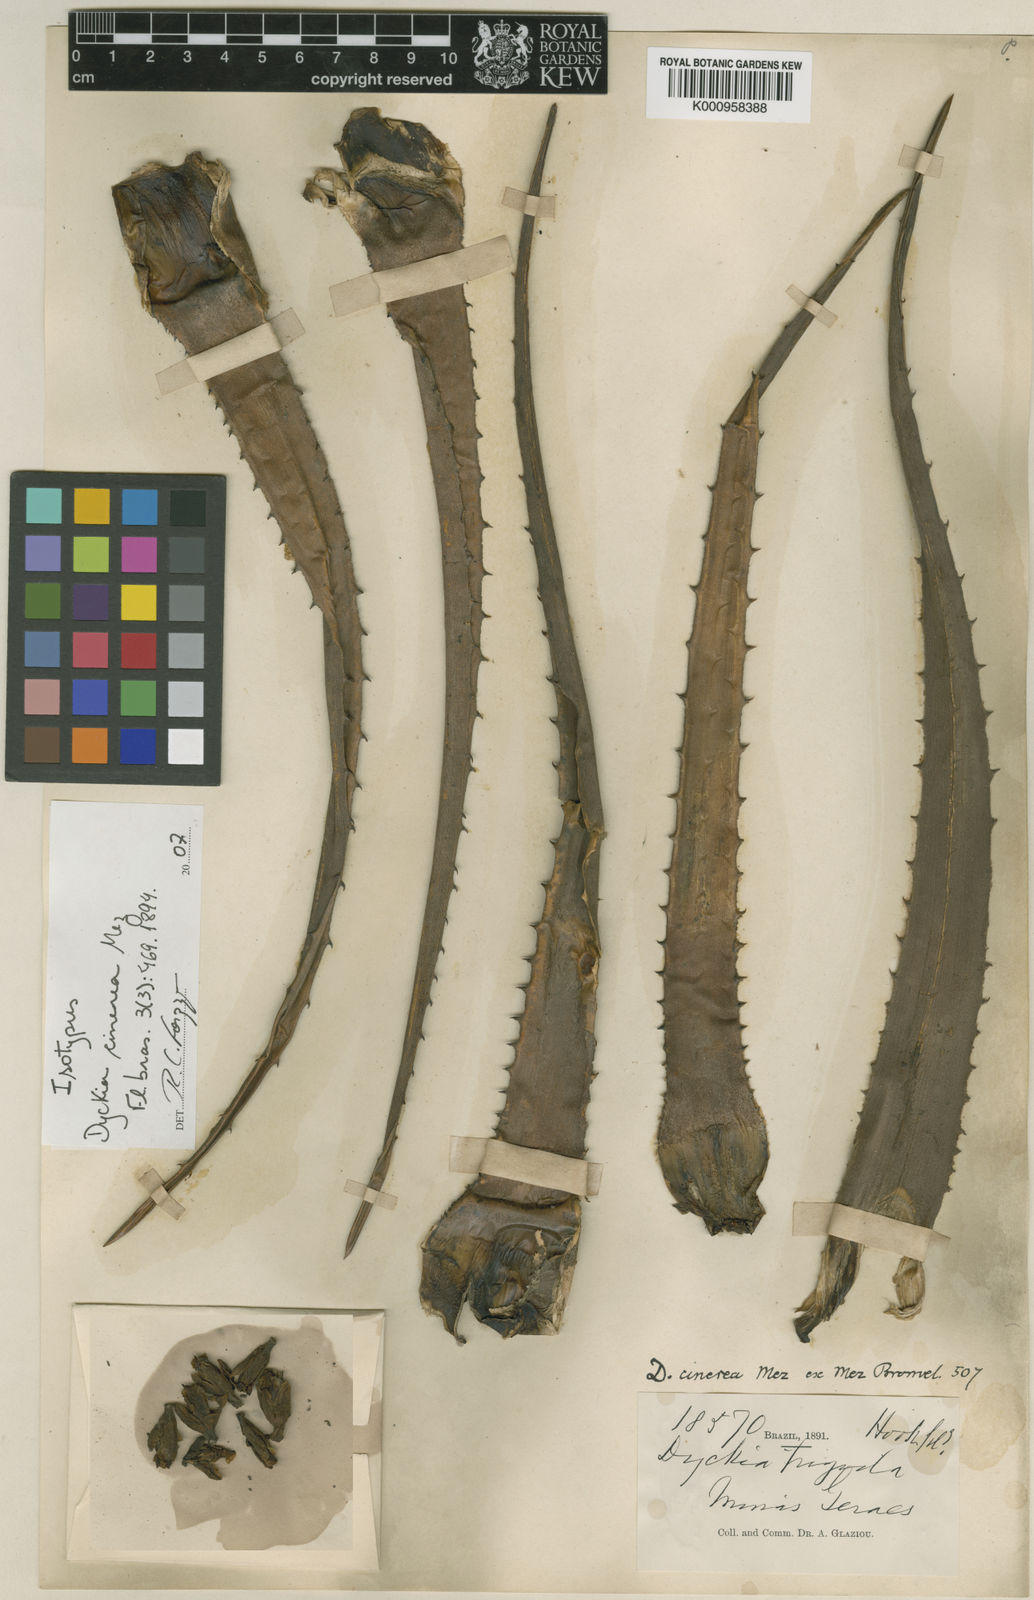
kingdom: Plantae
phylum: Tracheophyta
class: Liliopsida
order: Poales
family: Bromeliaceae
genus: Dyckia
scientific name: Dyckia cinerea
